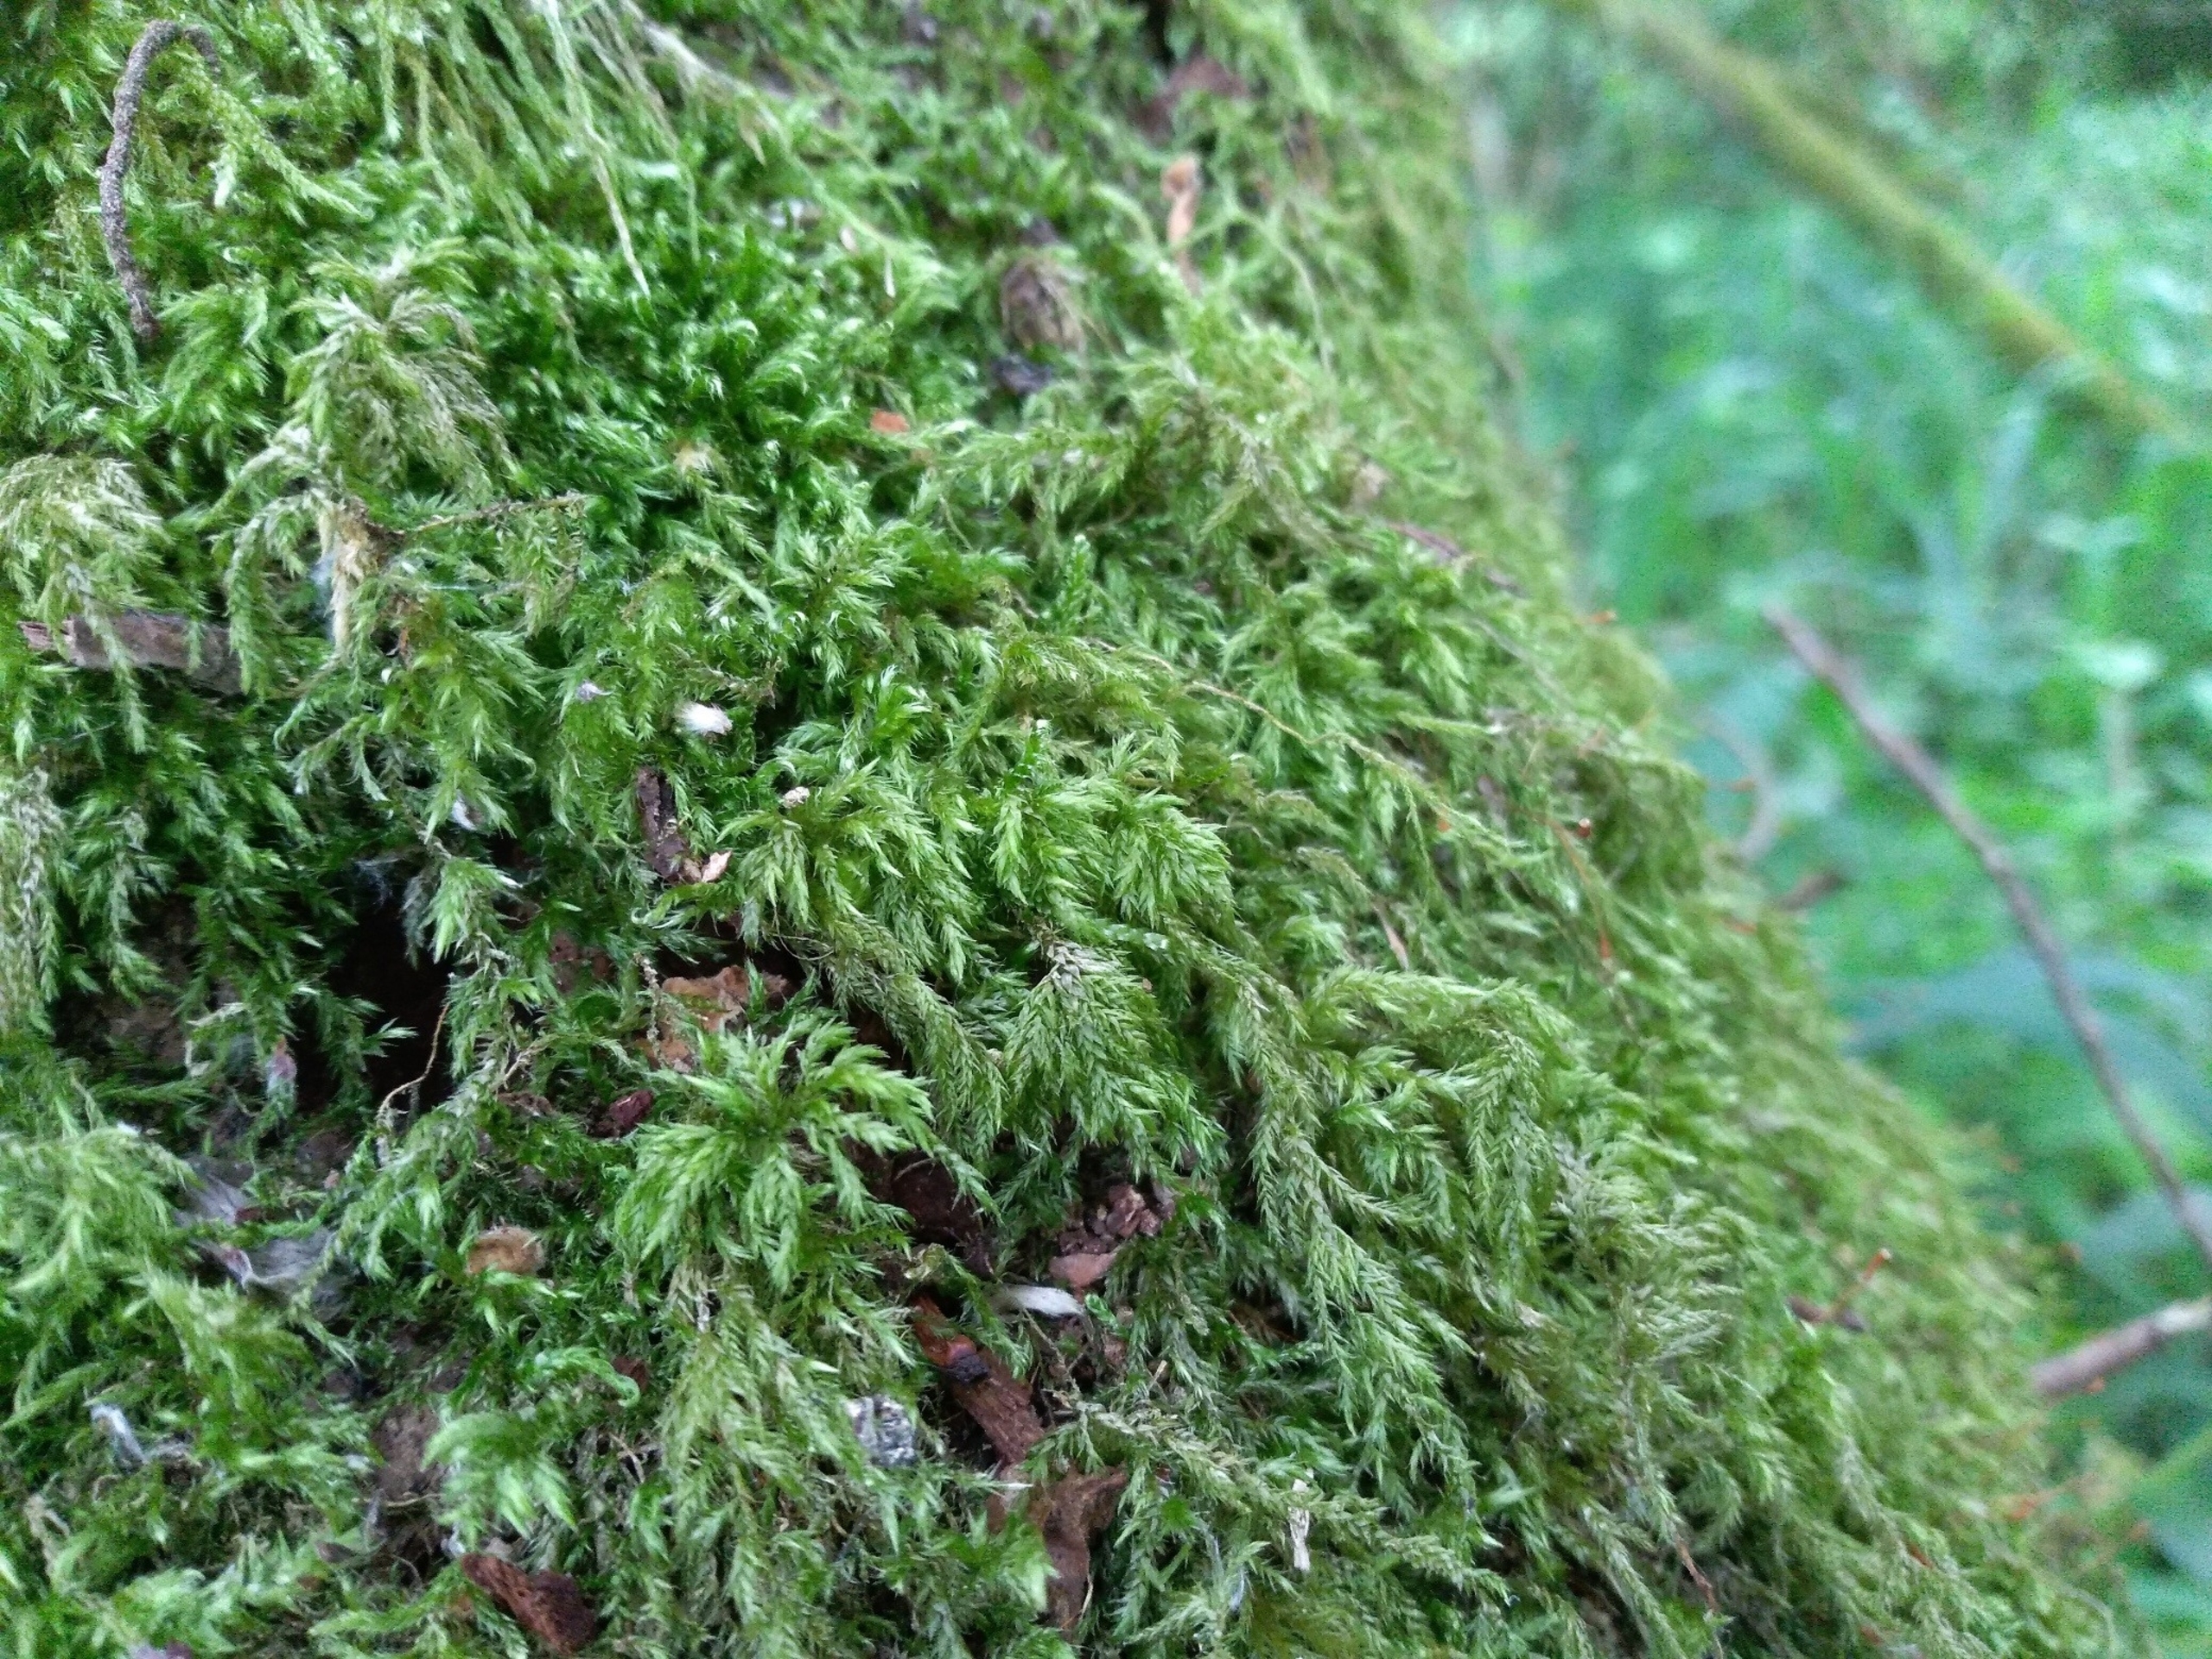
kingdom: Plantae
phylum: Bryophyta
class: Bryopsida
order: Hypnales
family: Lembophyllaceae
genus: Pseudisothecium
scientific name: Pseudisothecium myosuroides
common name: Slank stammemos
